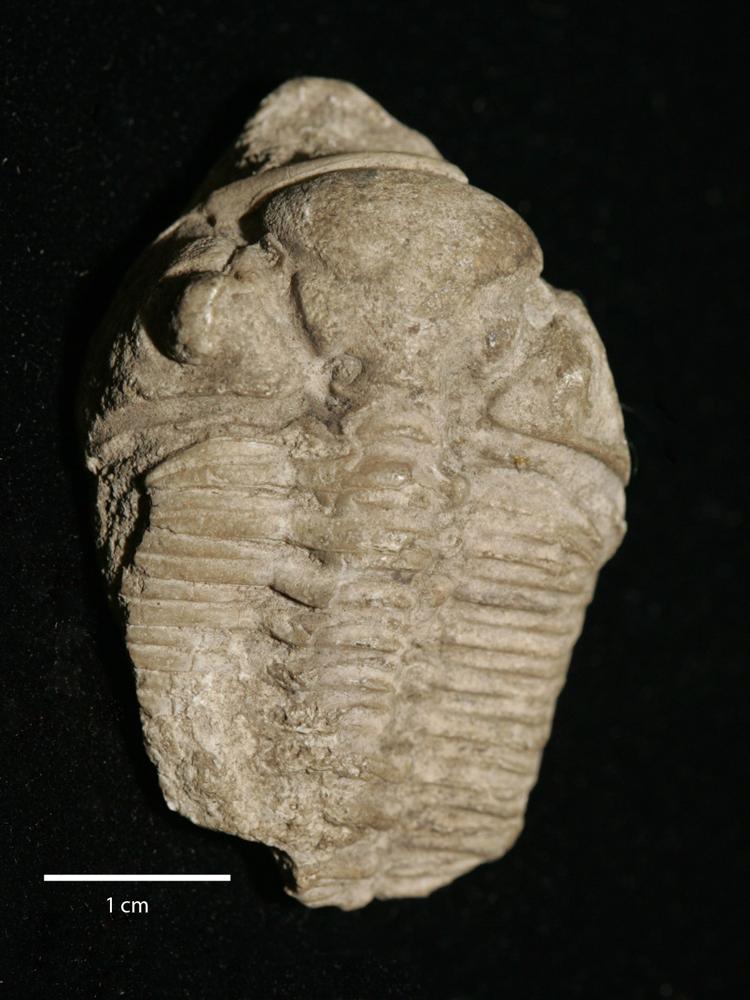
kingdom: Animalia
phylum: Arthropoda
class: Trilobita
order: Phacopida
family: Pterygometopidae
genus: Chasmops
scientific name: Chasmops odini
